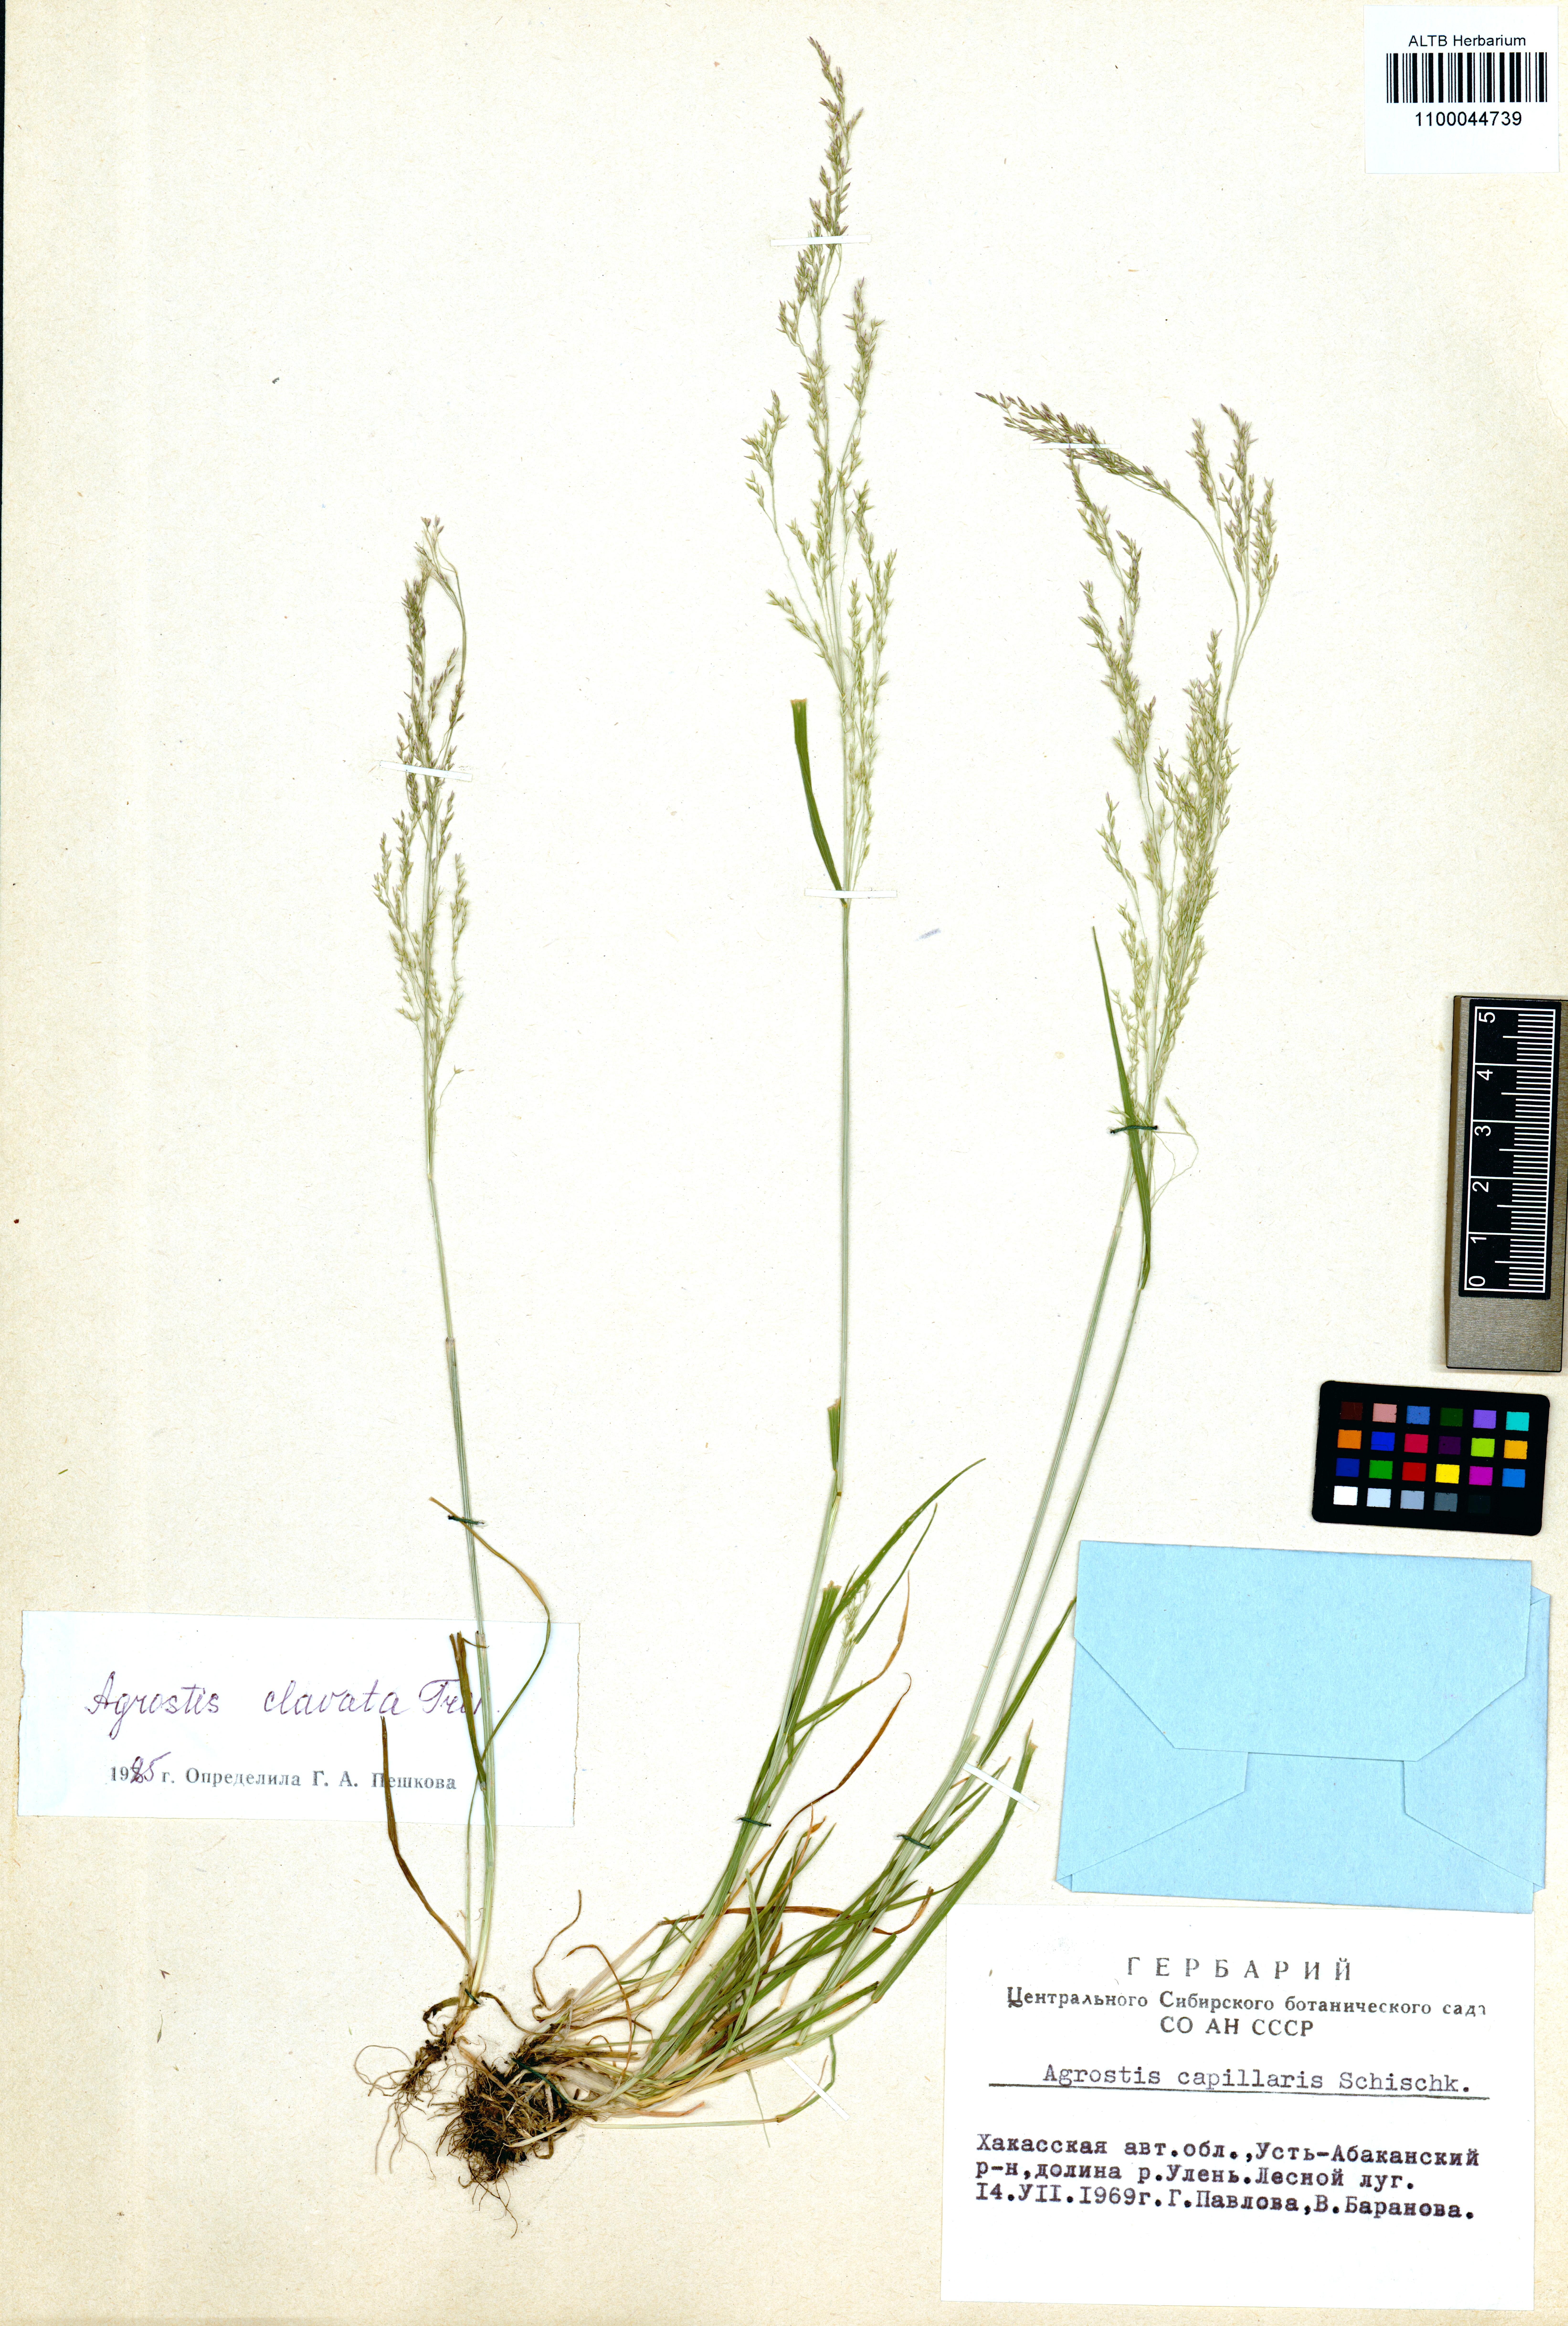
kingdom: Plantae
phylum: Tracheophyta
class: Liliopsida
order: Poales
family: Poaceae
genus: Agrostis
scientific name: Agrostis clavata
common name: Clavate bent
